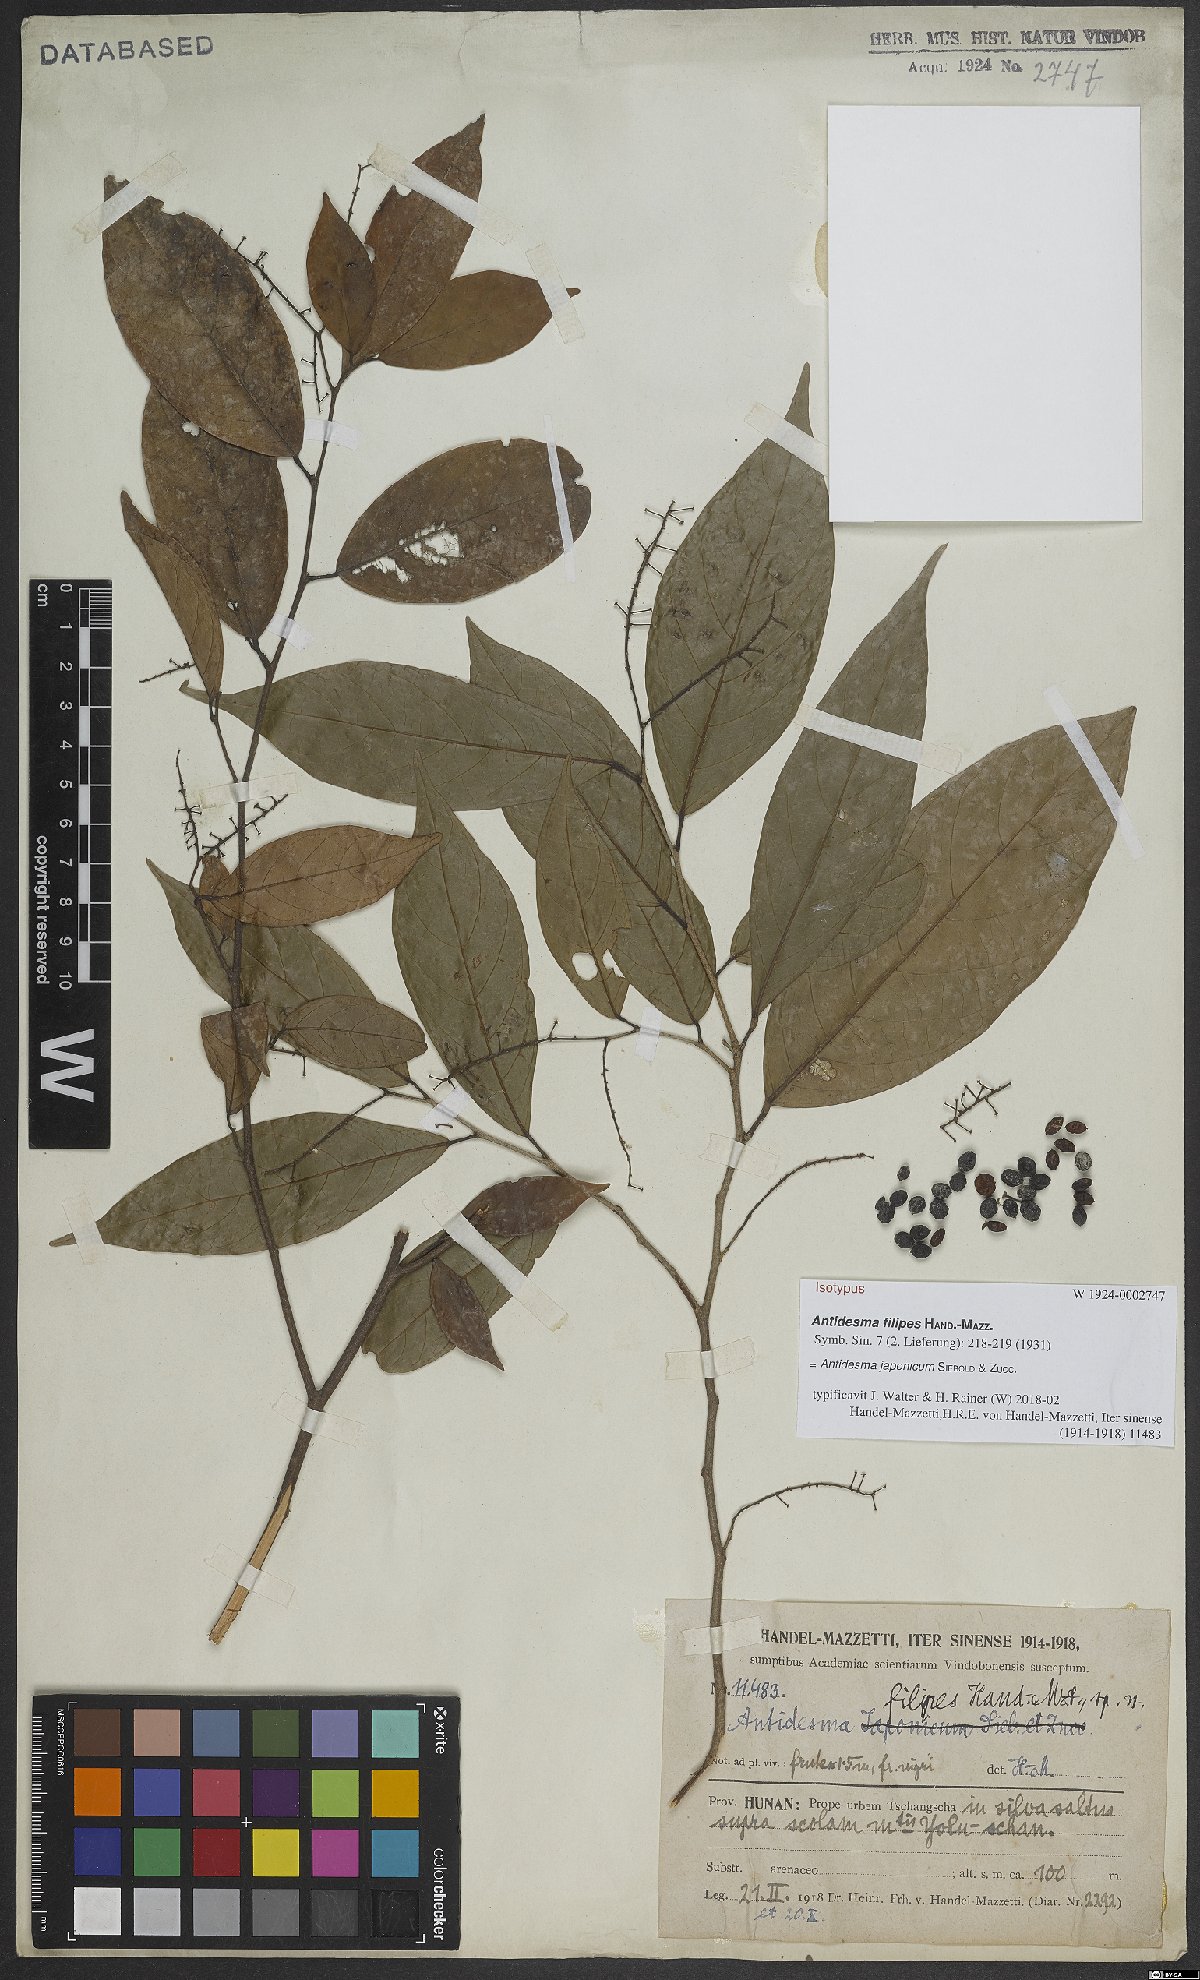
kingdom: Plantae
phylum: Tracheophyta
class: Magnoliopsida
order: Malpighiales
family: Phyllanthaceae
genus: Antidesma
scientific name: Antidesma japonicum
